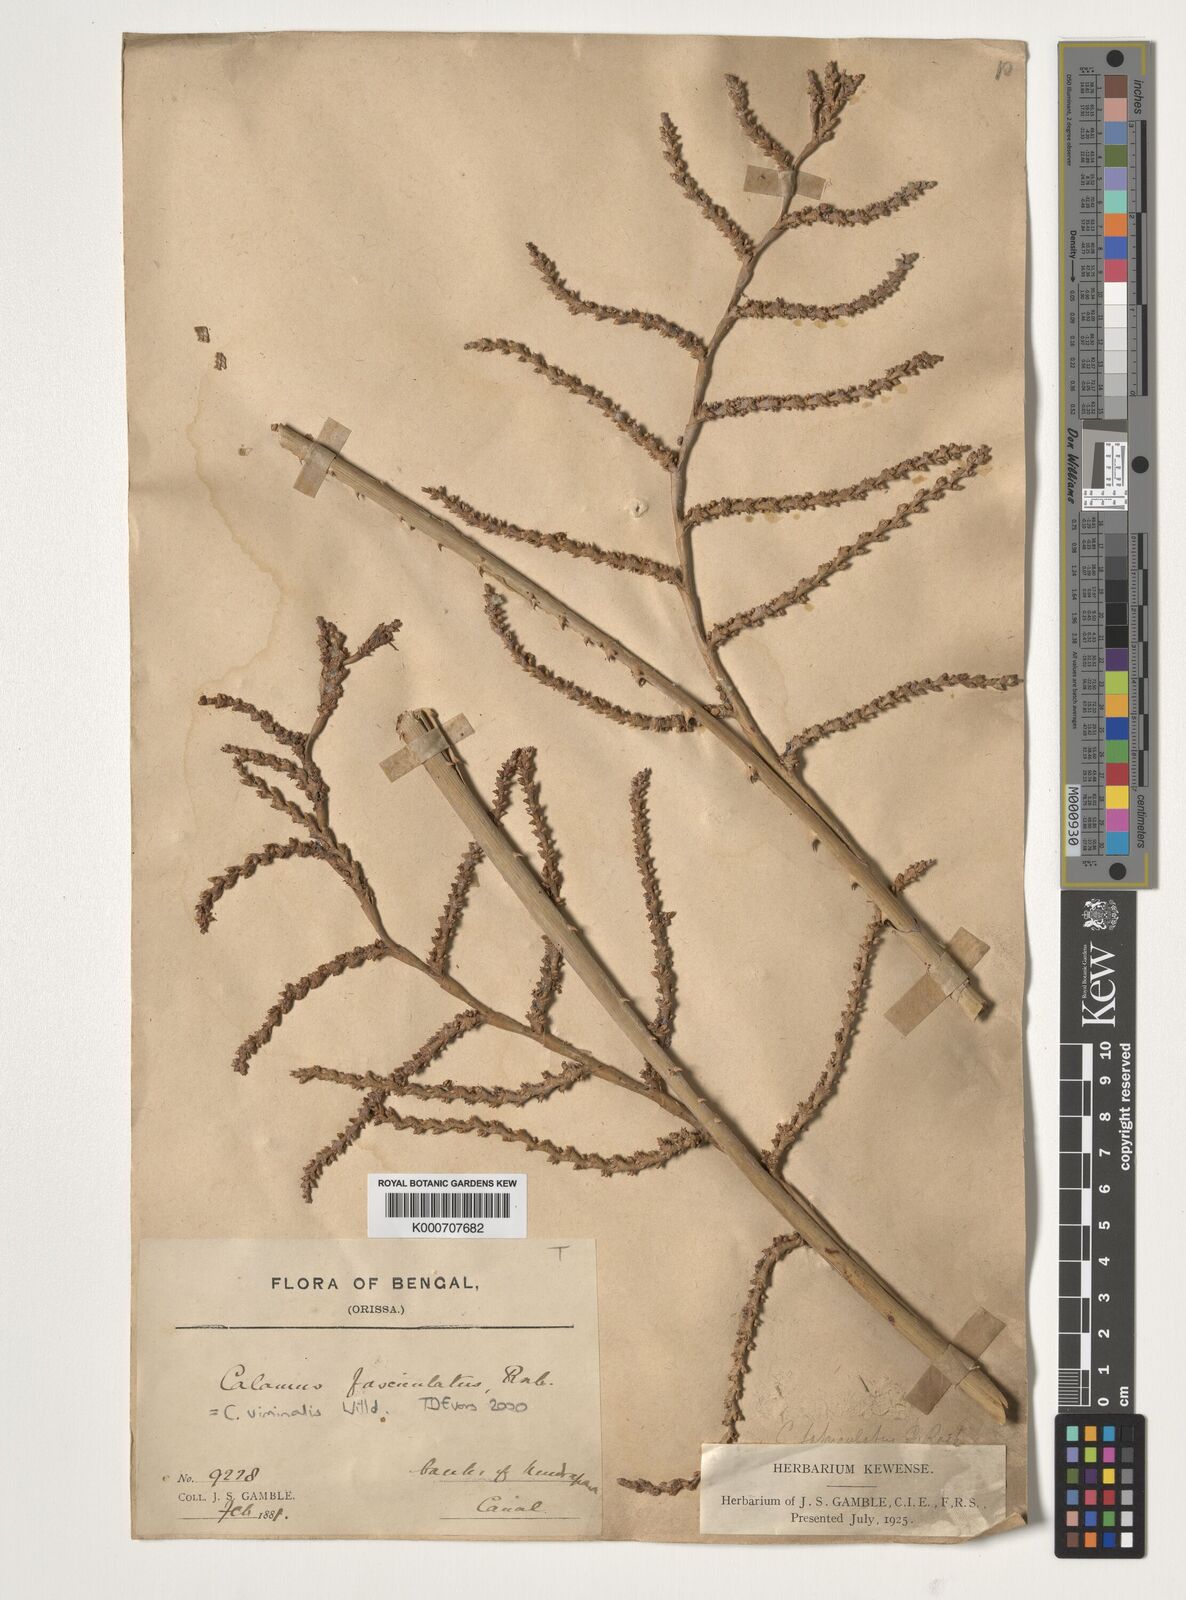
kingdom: Plantae
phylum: Tracheophyta
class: Liliopsida
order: Arecales
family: Arecaceae
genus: Calamus
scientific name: Calamus viminalis
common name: Osier-like rattan palm
